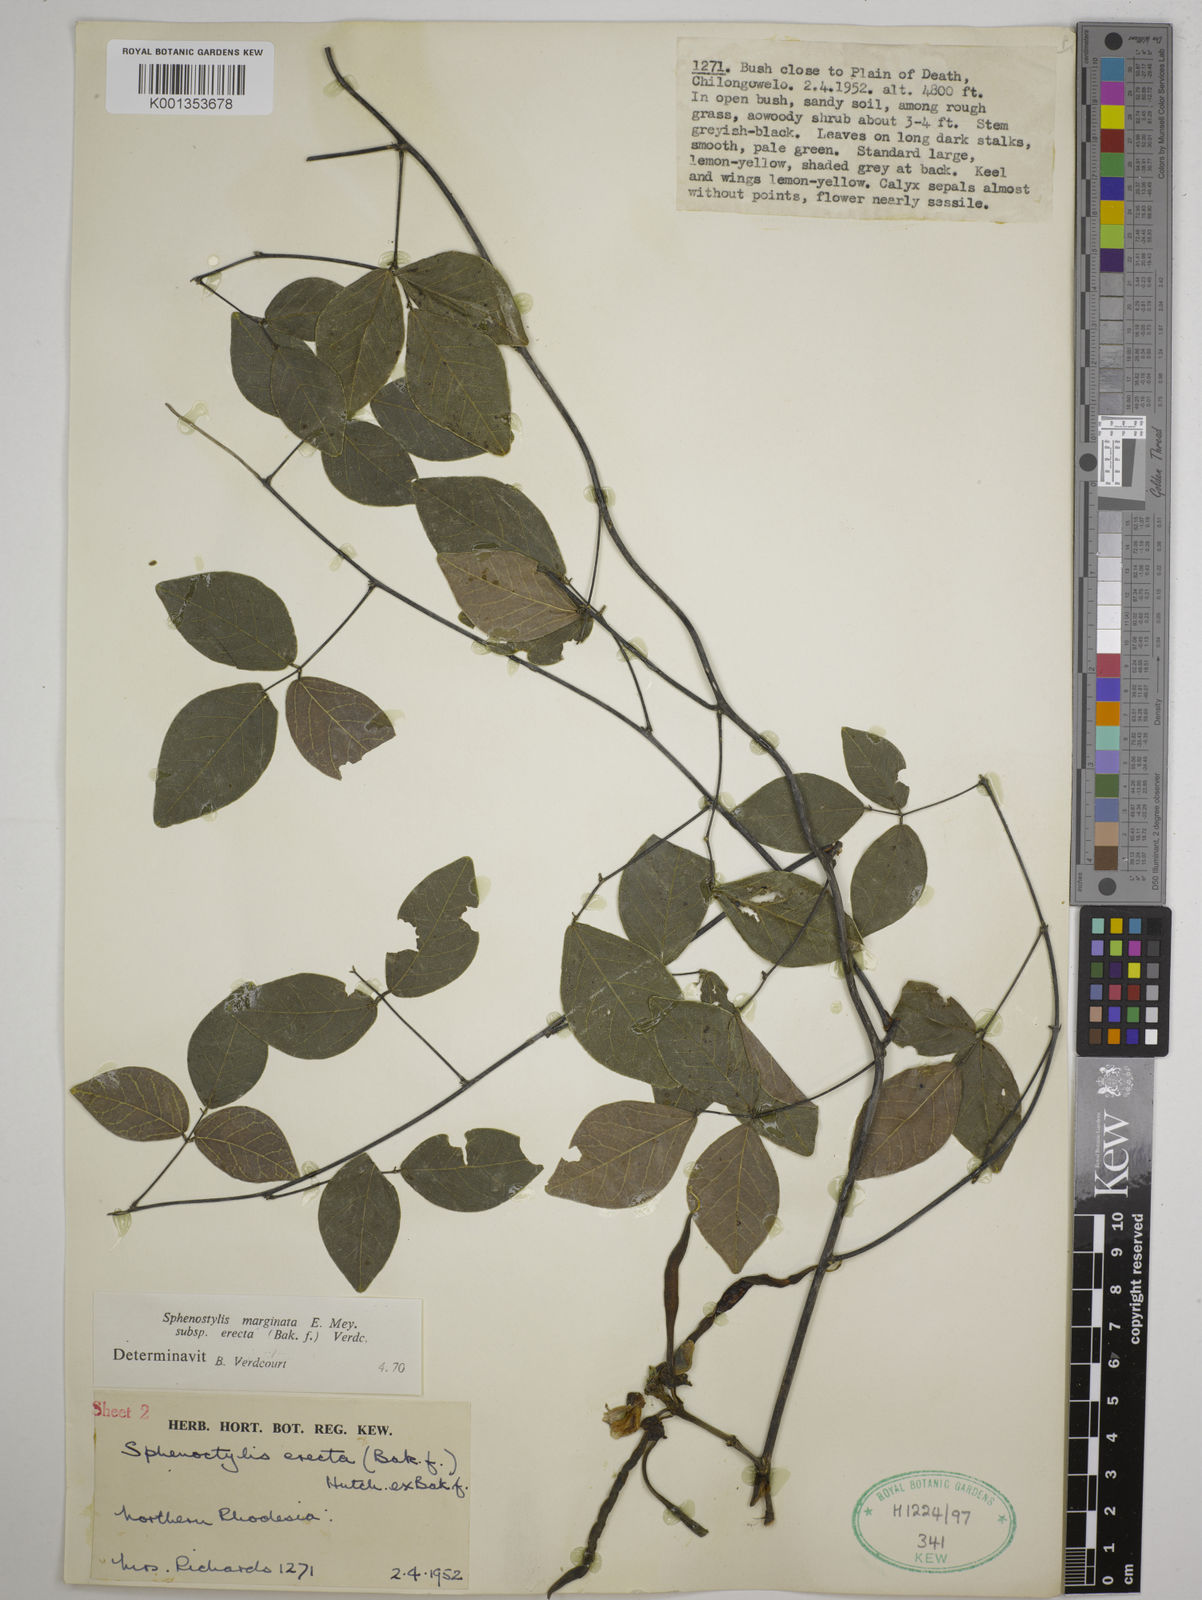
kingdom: Plantae
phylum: Tracheophyta
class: Magnoliopsida
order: Fabales
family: Fabaceae
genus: Sphenostylis
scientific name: Sphenostylis erecta
